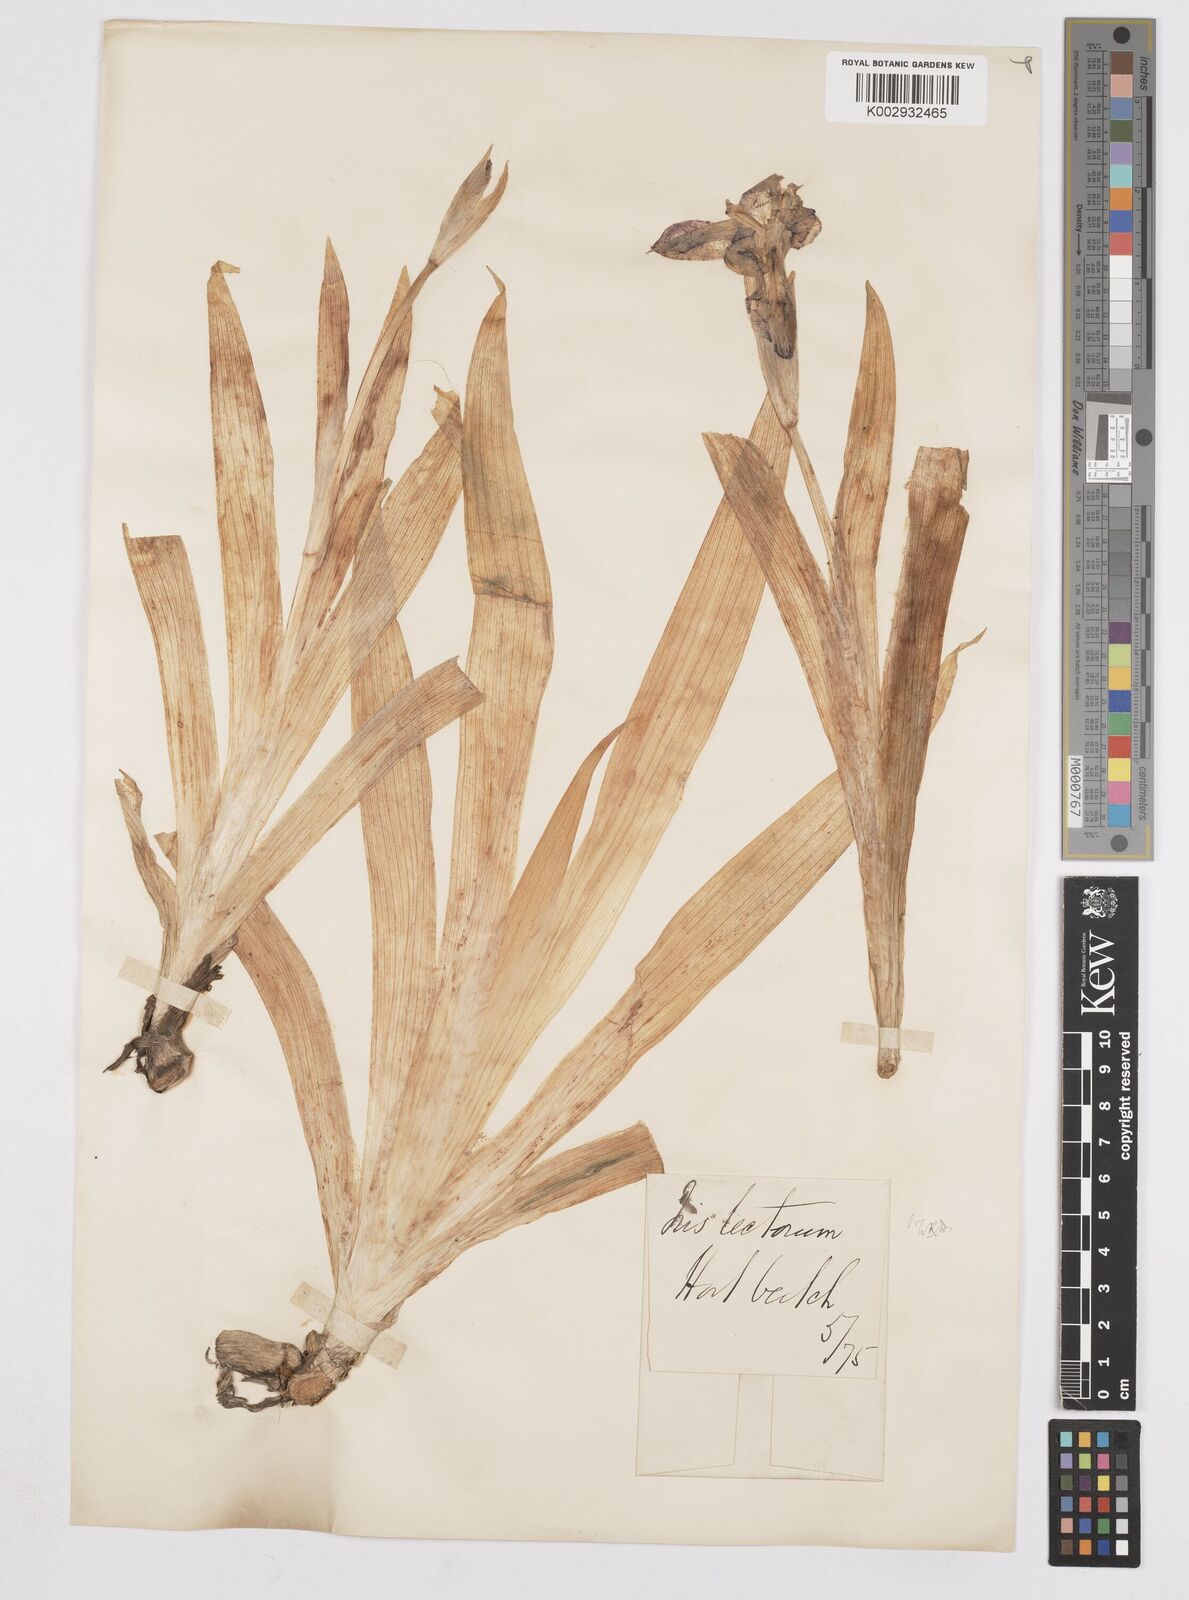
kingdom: Plantae
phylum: Tracheophyta
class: Liliopsida
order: Asparagales
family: Iridaceae
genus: Iris
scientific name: Iris tectorum
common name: Wall iris
